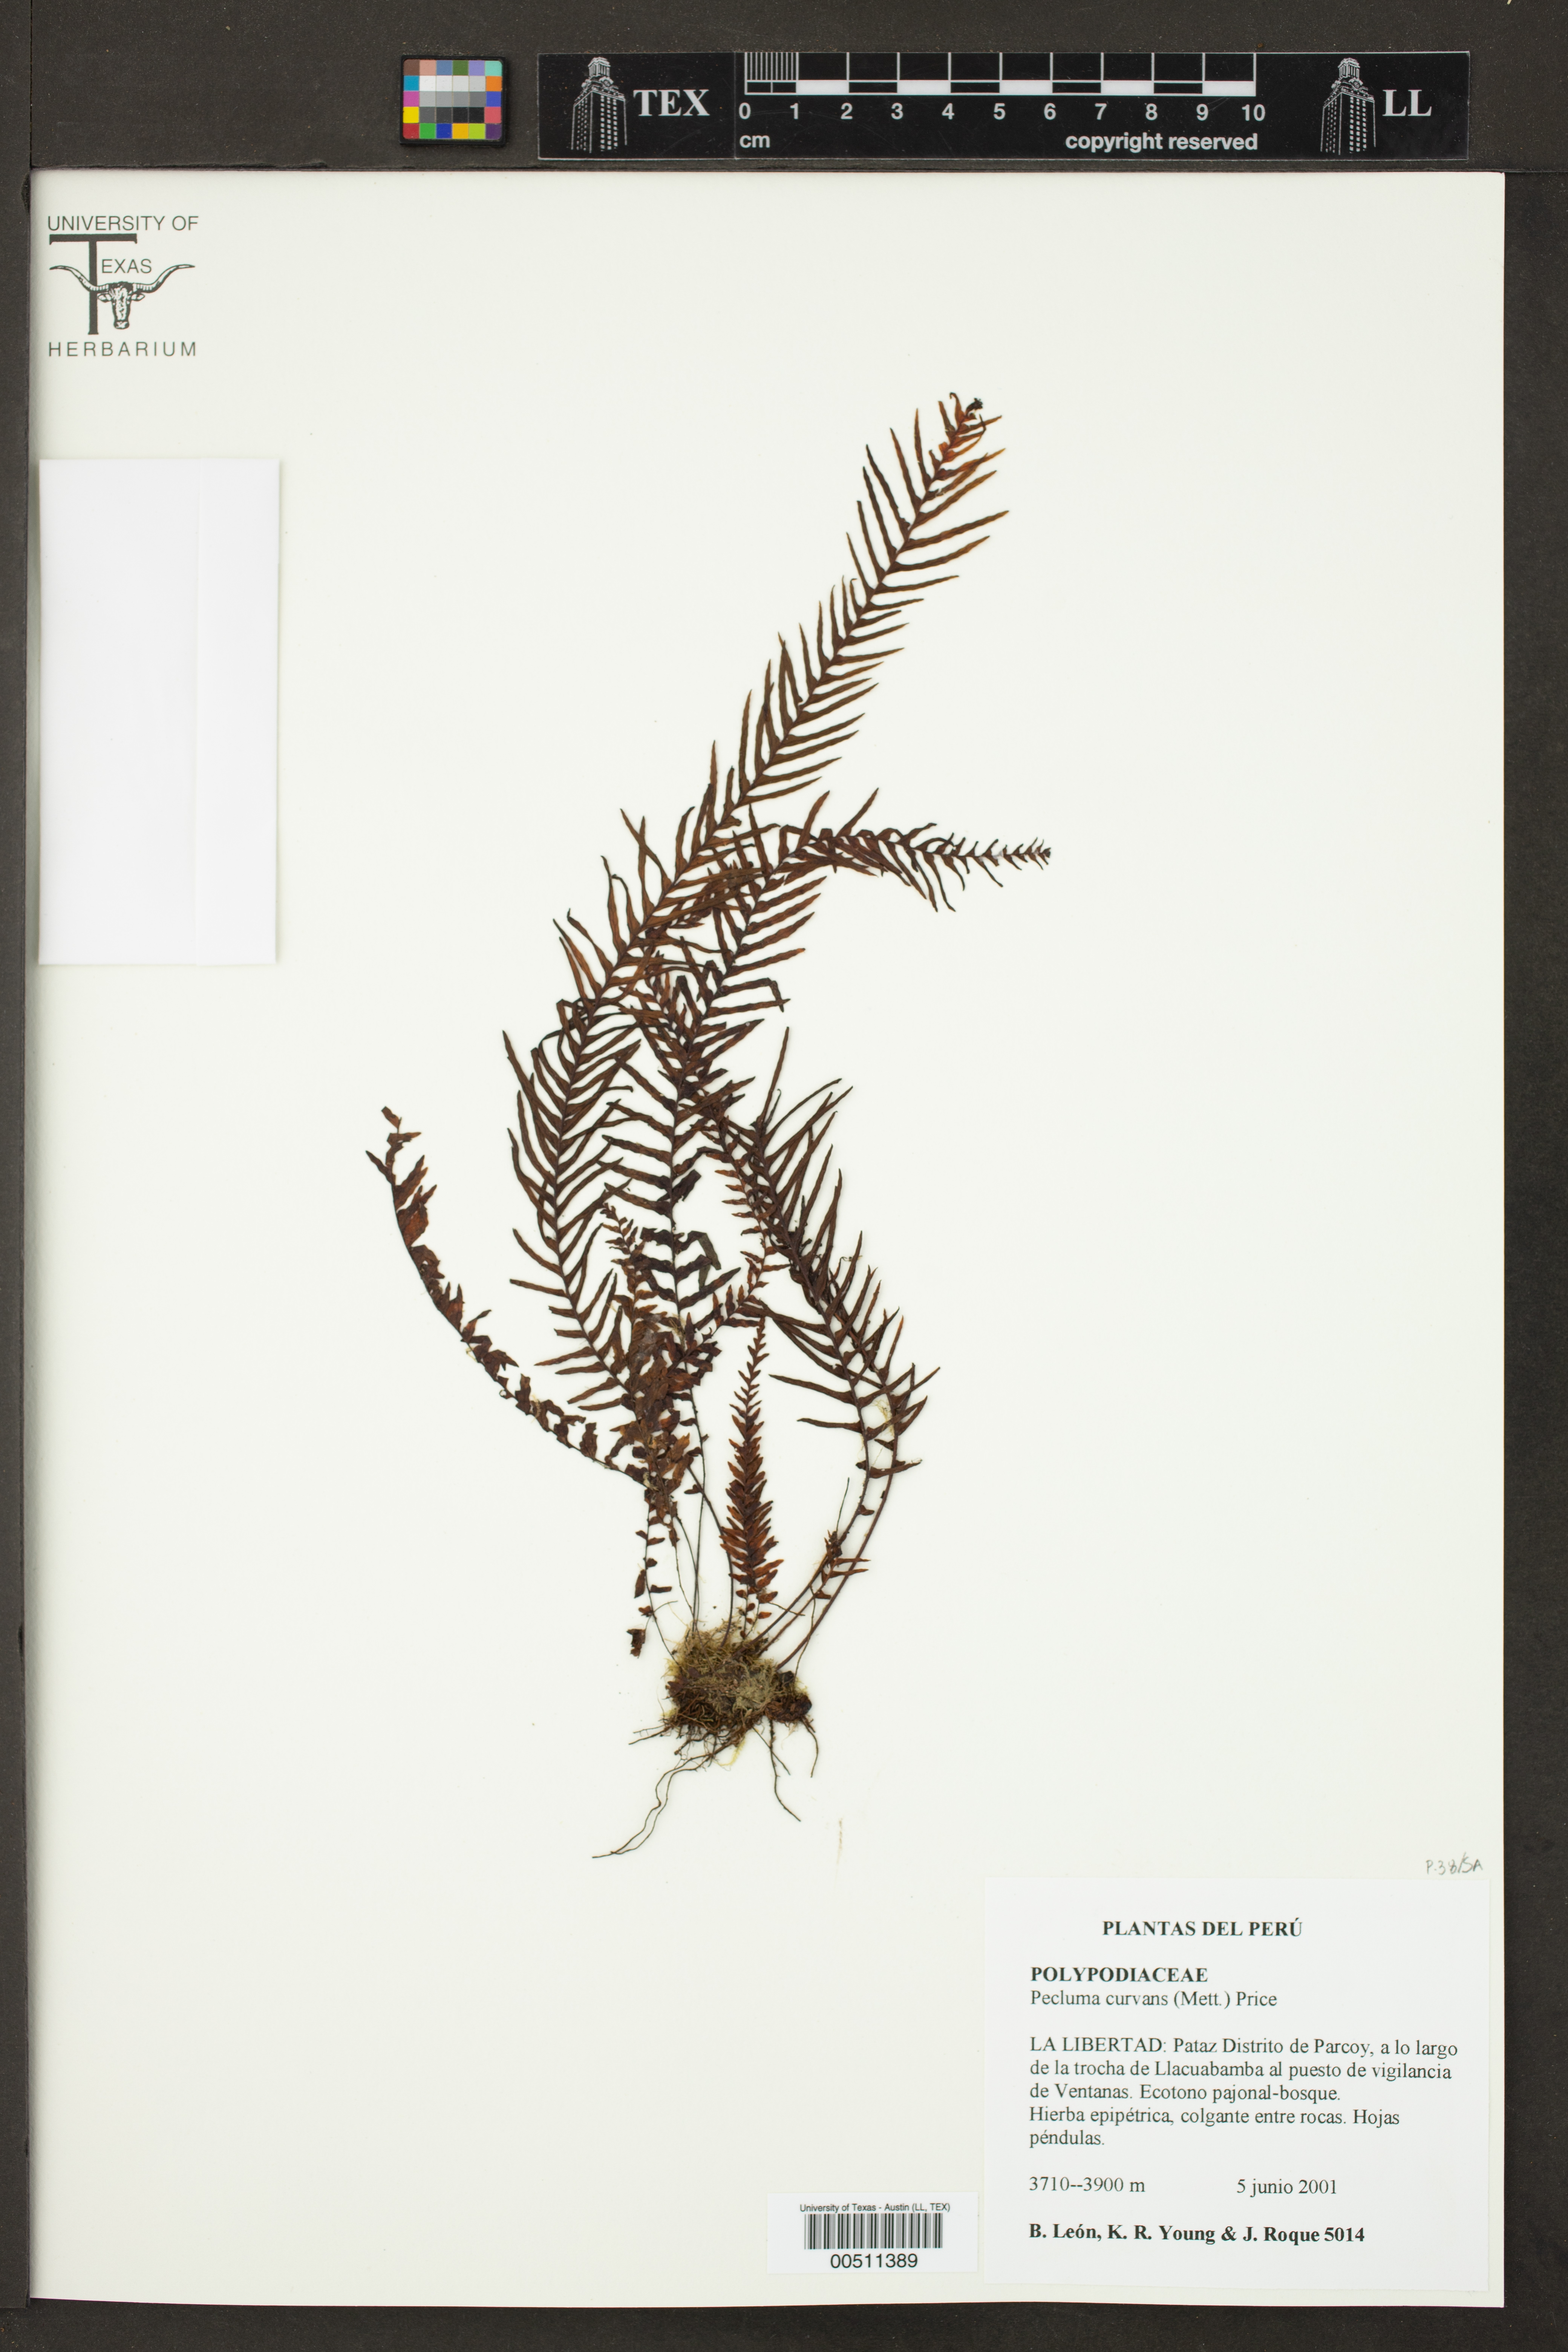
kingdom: Plantae
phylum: Tracheophyta
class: Polypodiopsida
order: Polypodiales
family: Polypodiaceae
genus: Pecluma
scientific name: Pecluma curvans
